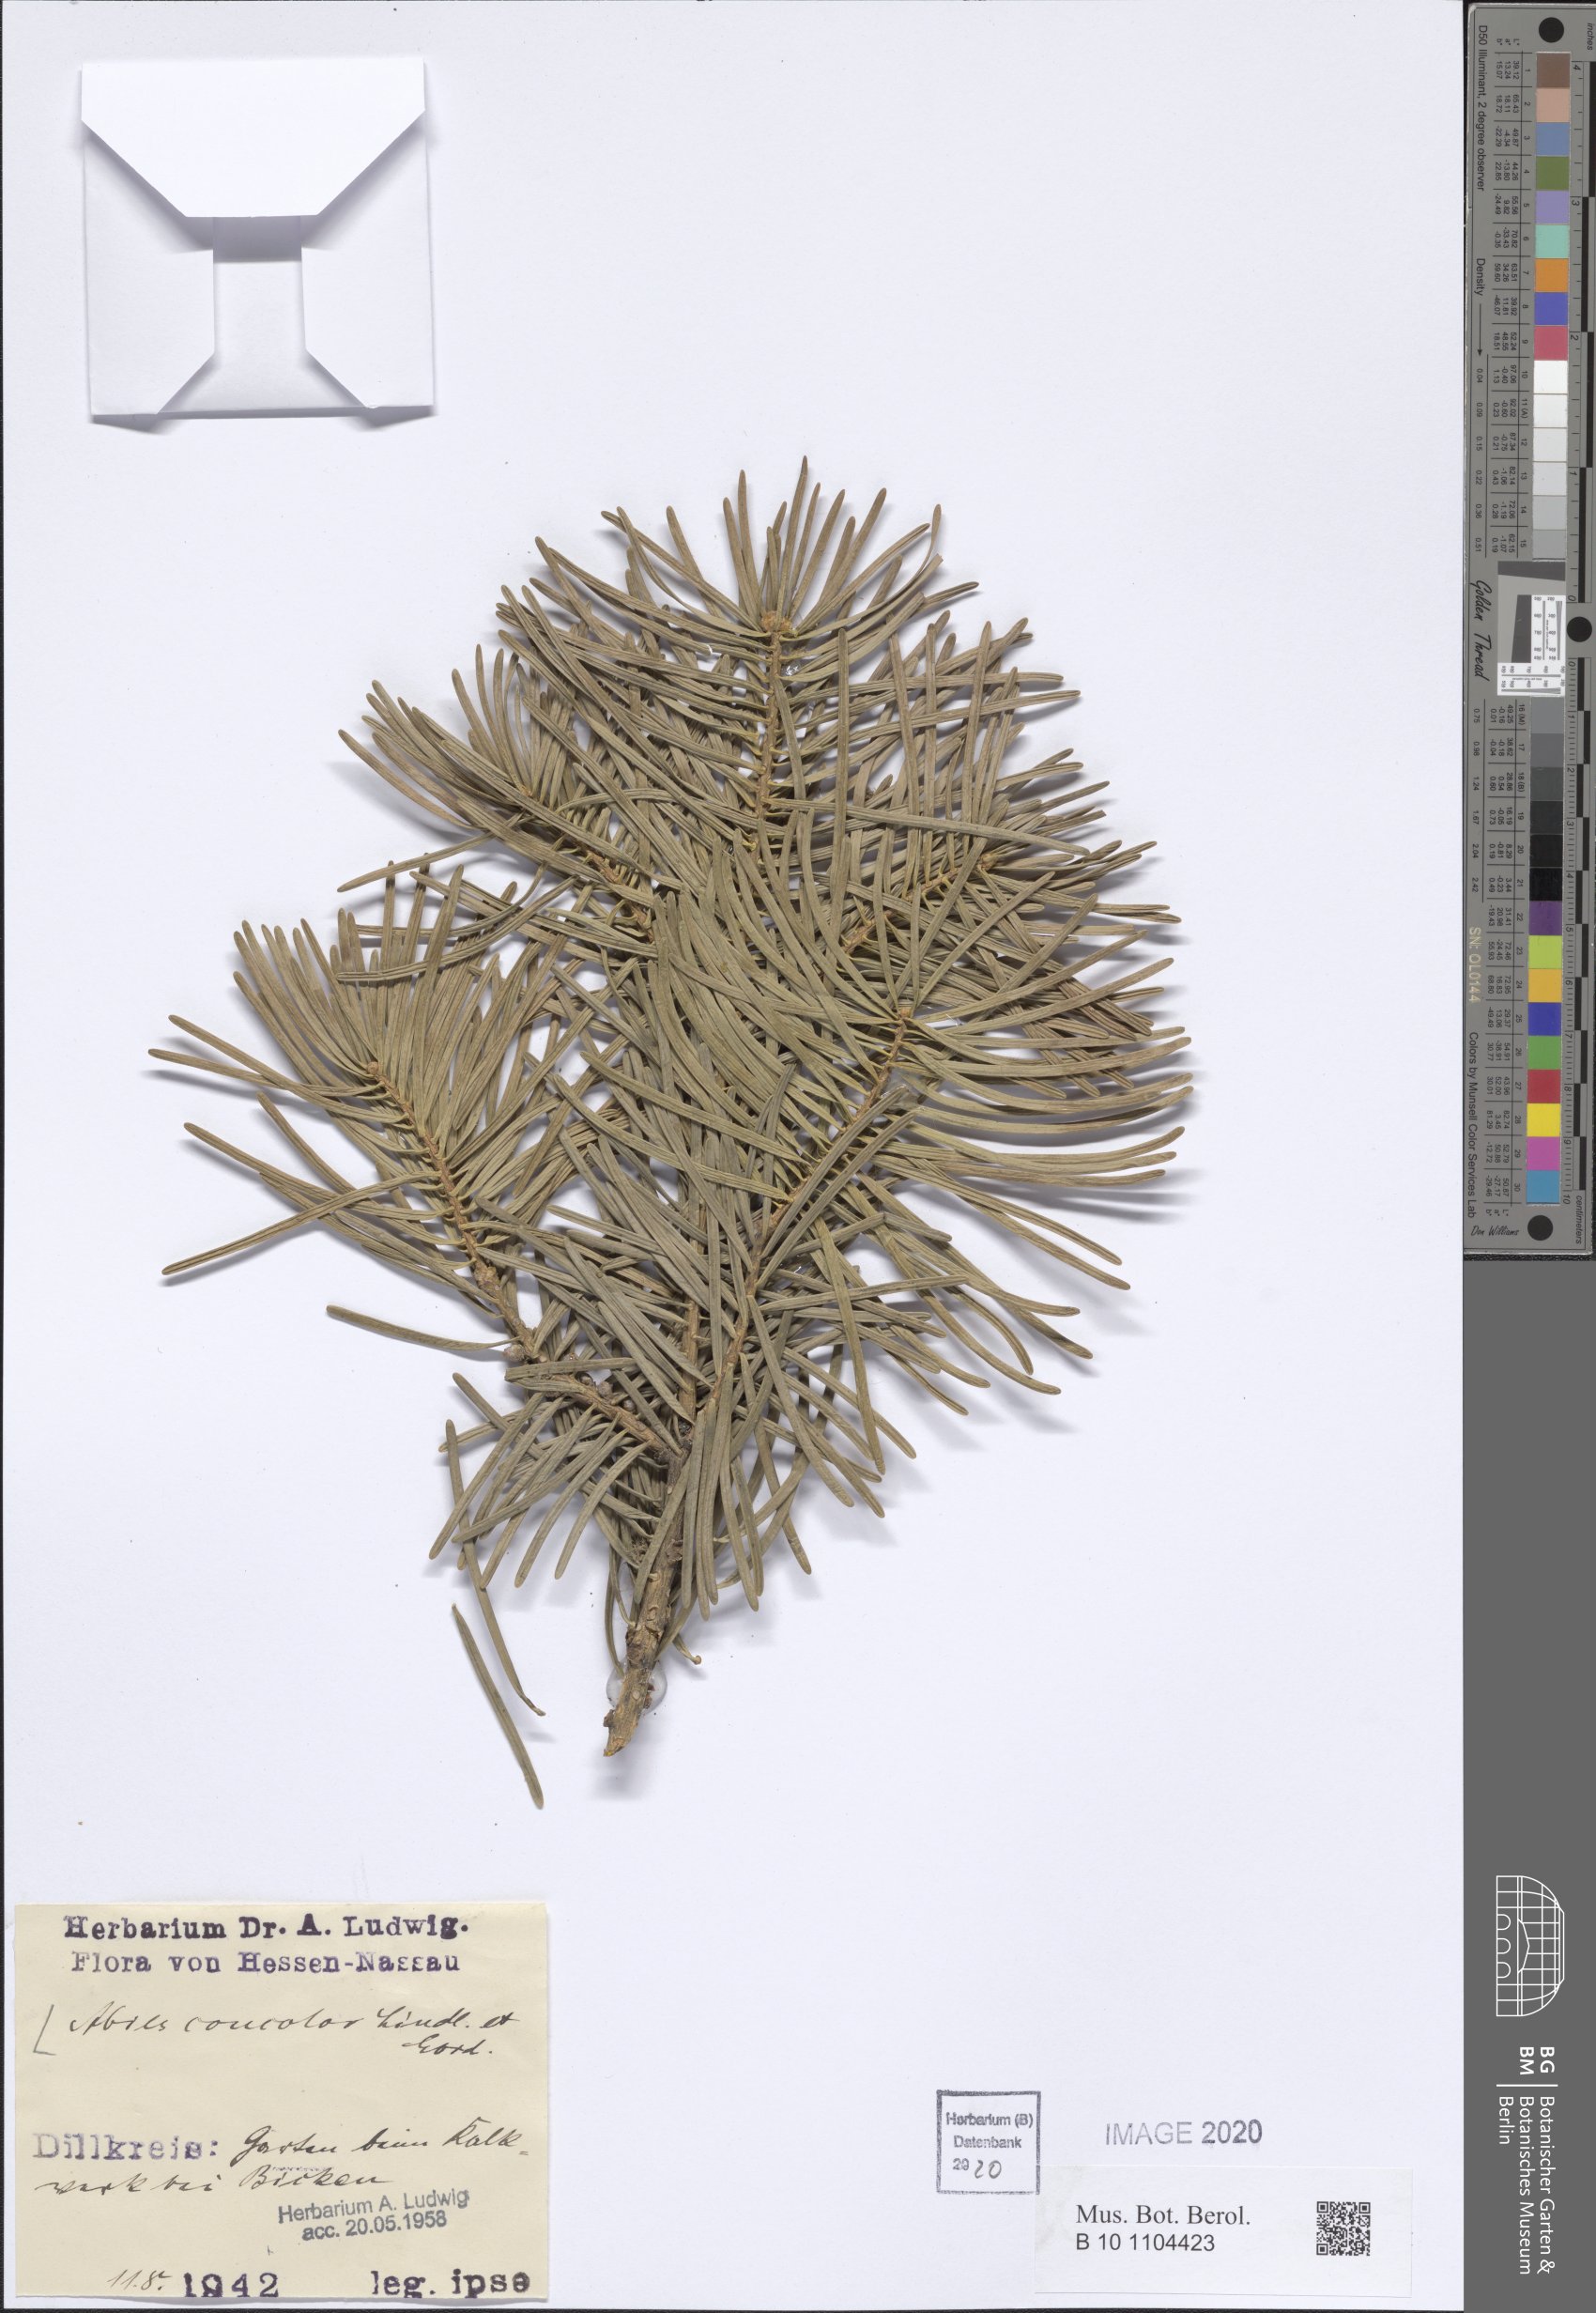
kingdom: Plantae
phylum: Tracheophyta
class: Pinopsida
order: Pinales
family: Pinaceae
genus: Abies
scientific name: Abies concolor
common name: Colorado fir
